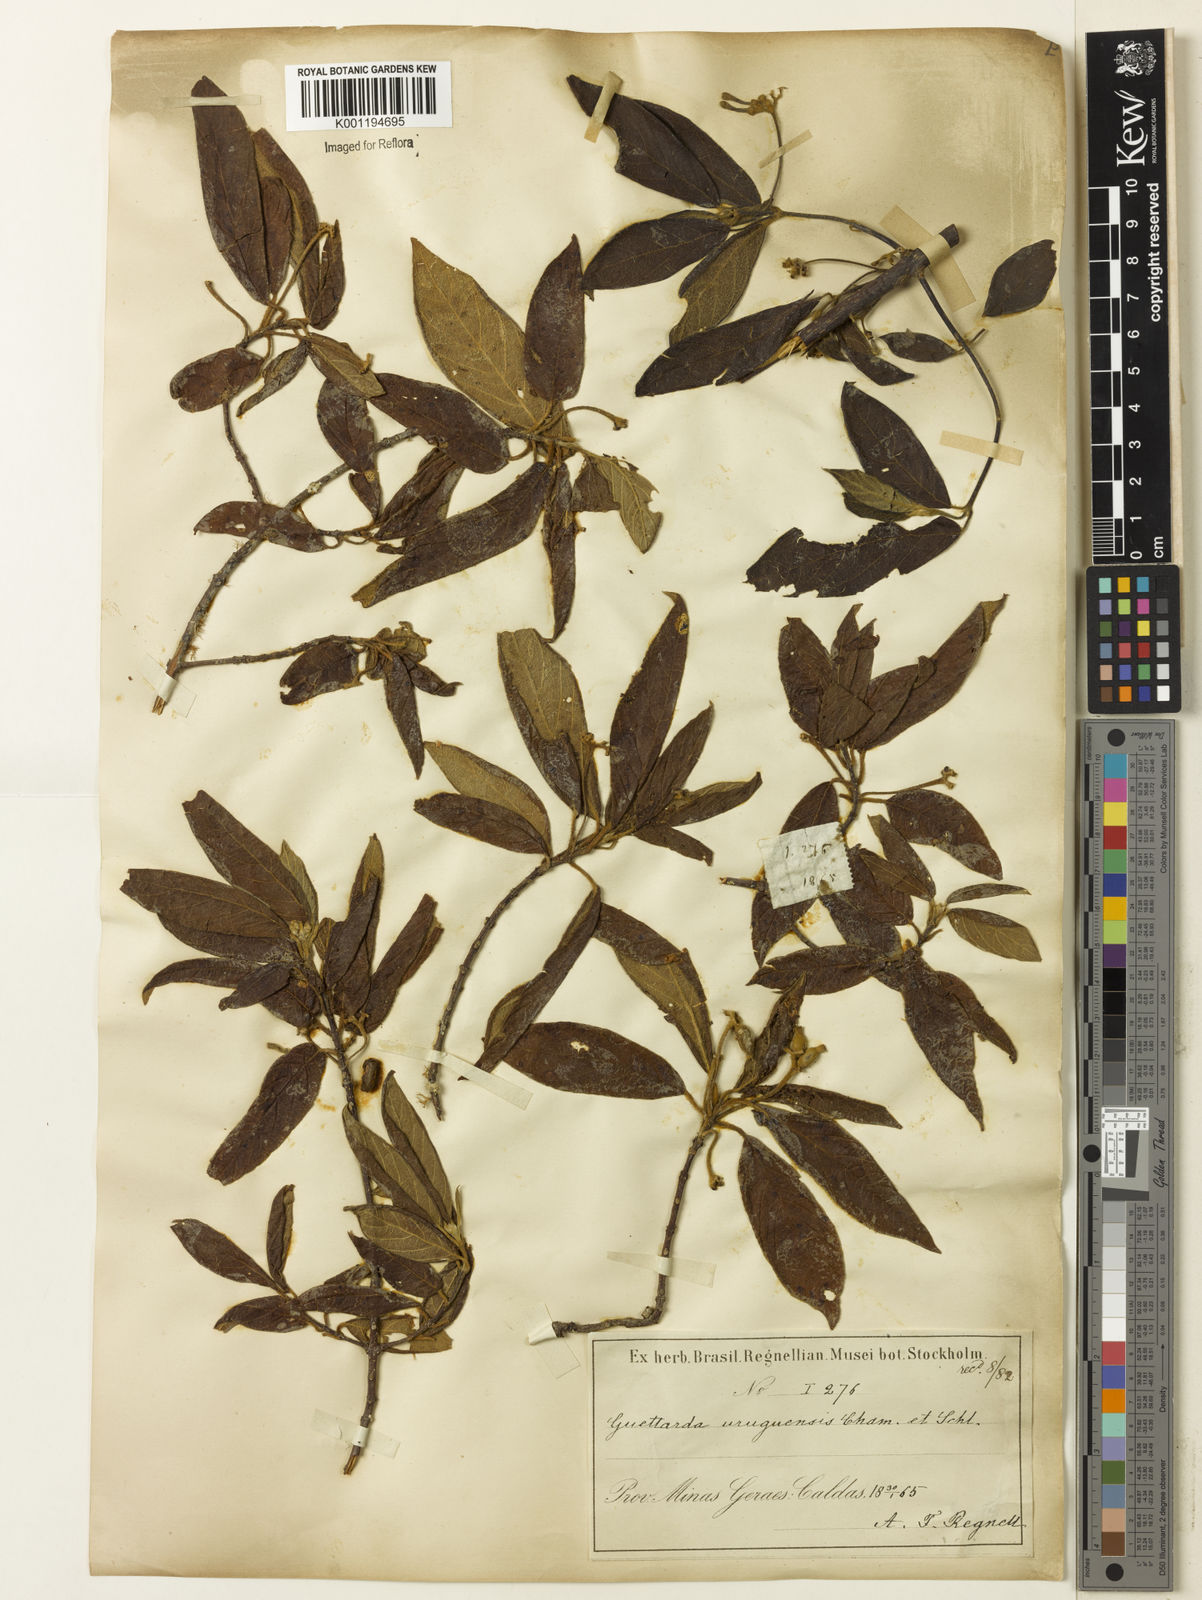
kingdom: Plantae
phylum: Tracheophyta
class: Magnoliopsida
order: Gentianales
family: Rubiaceae
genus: Guettarda
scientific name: Guettarda uruguensis
